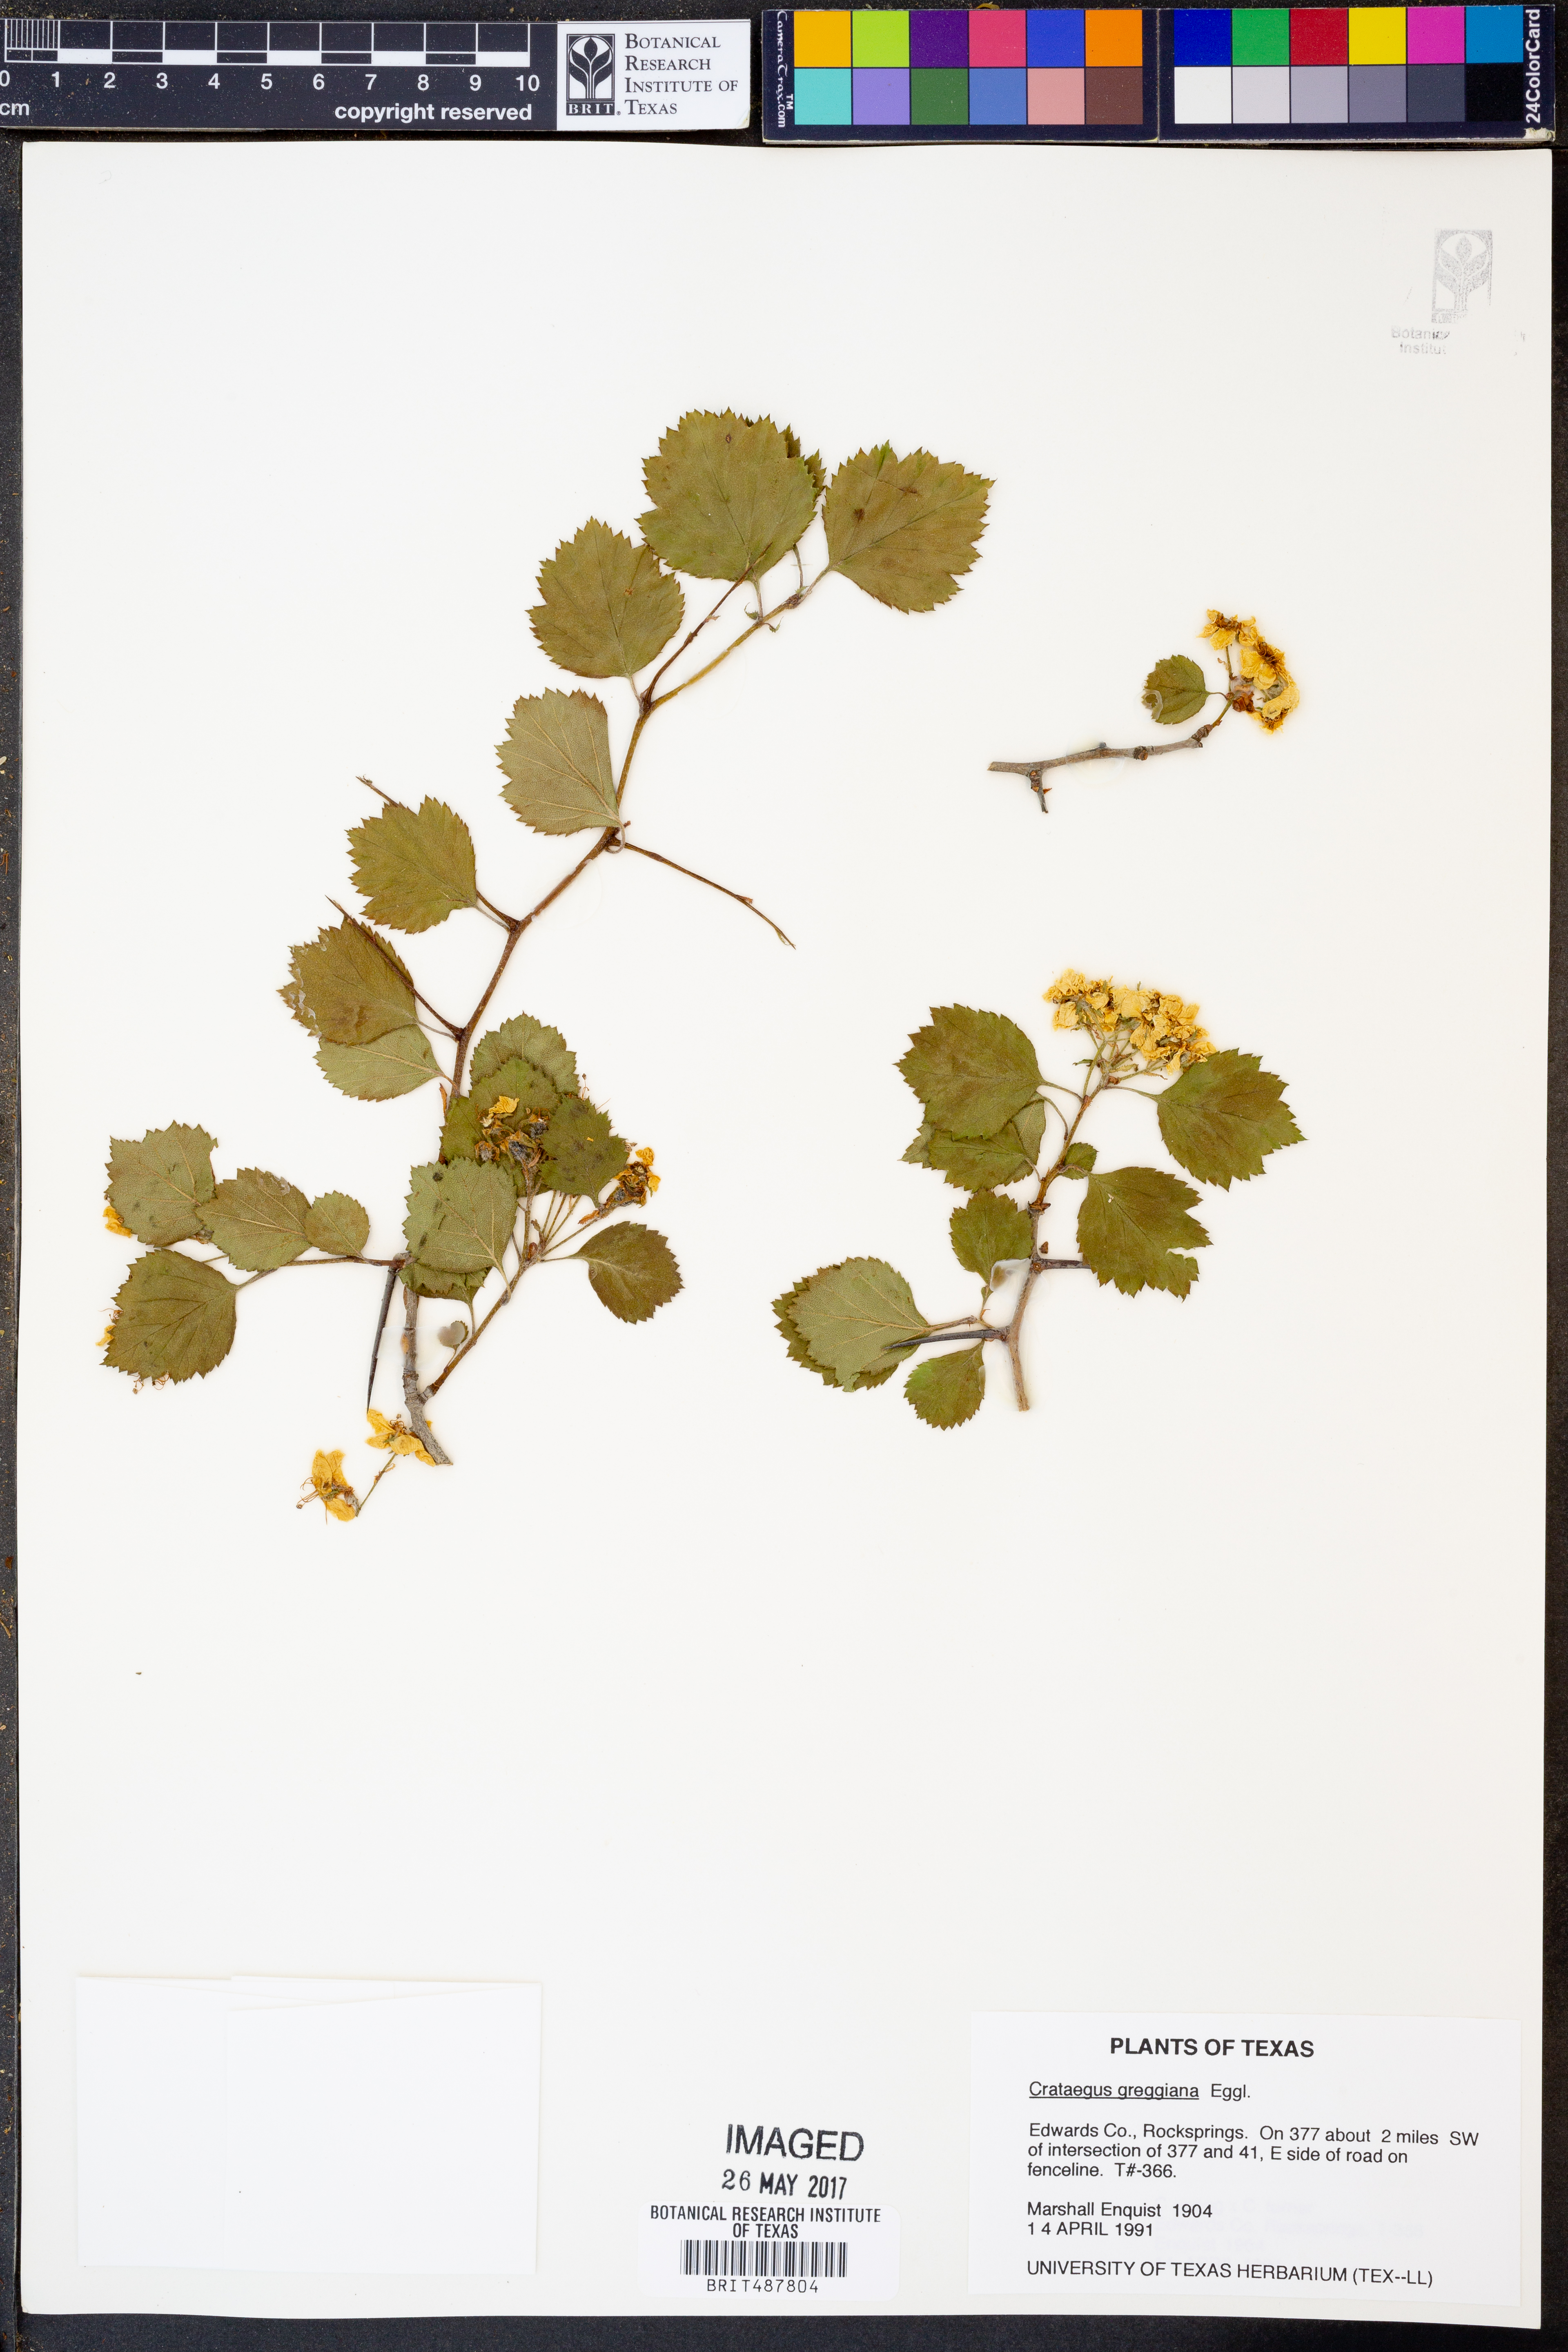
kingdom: Plantae
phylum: Tracheophyta
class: Magnoliopsida
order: Rosales
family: Rosaceae
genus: Crataegus
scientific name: Crataegus greggiana
